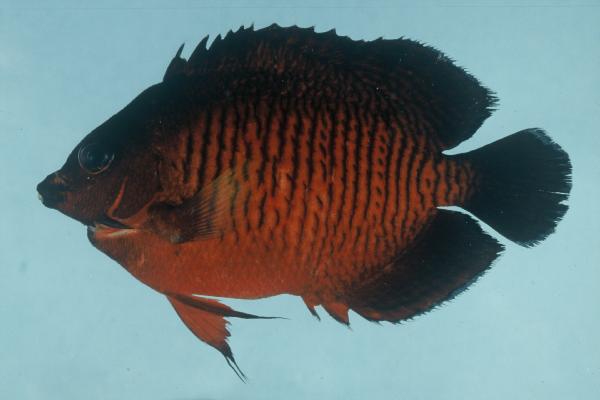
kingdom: Animalia
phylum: Chordata
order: Perciformes
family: Pomacanthidae
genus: Centropyge
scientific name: Centropyge bispinosa
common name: Coral beauty
